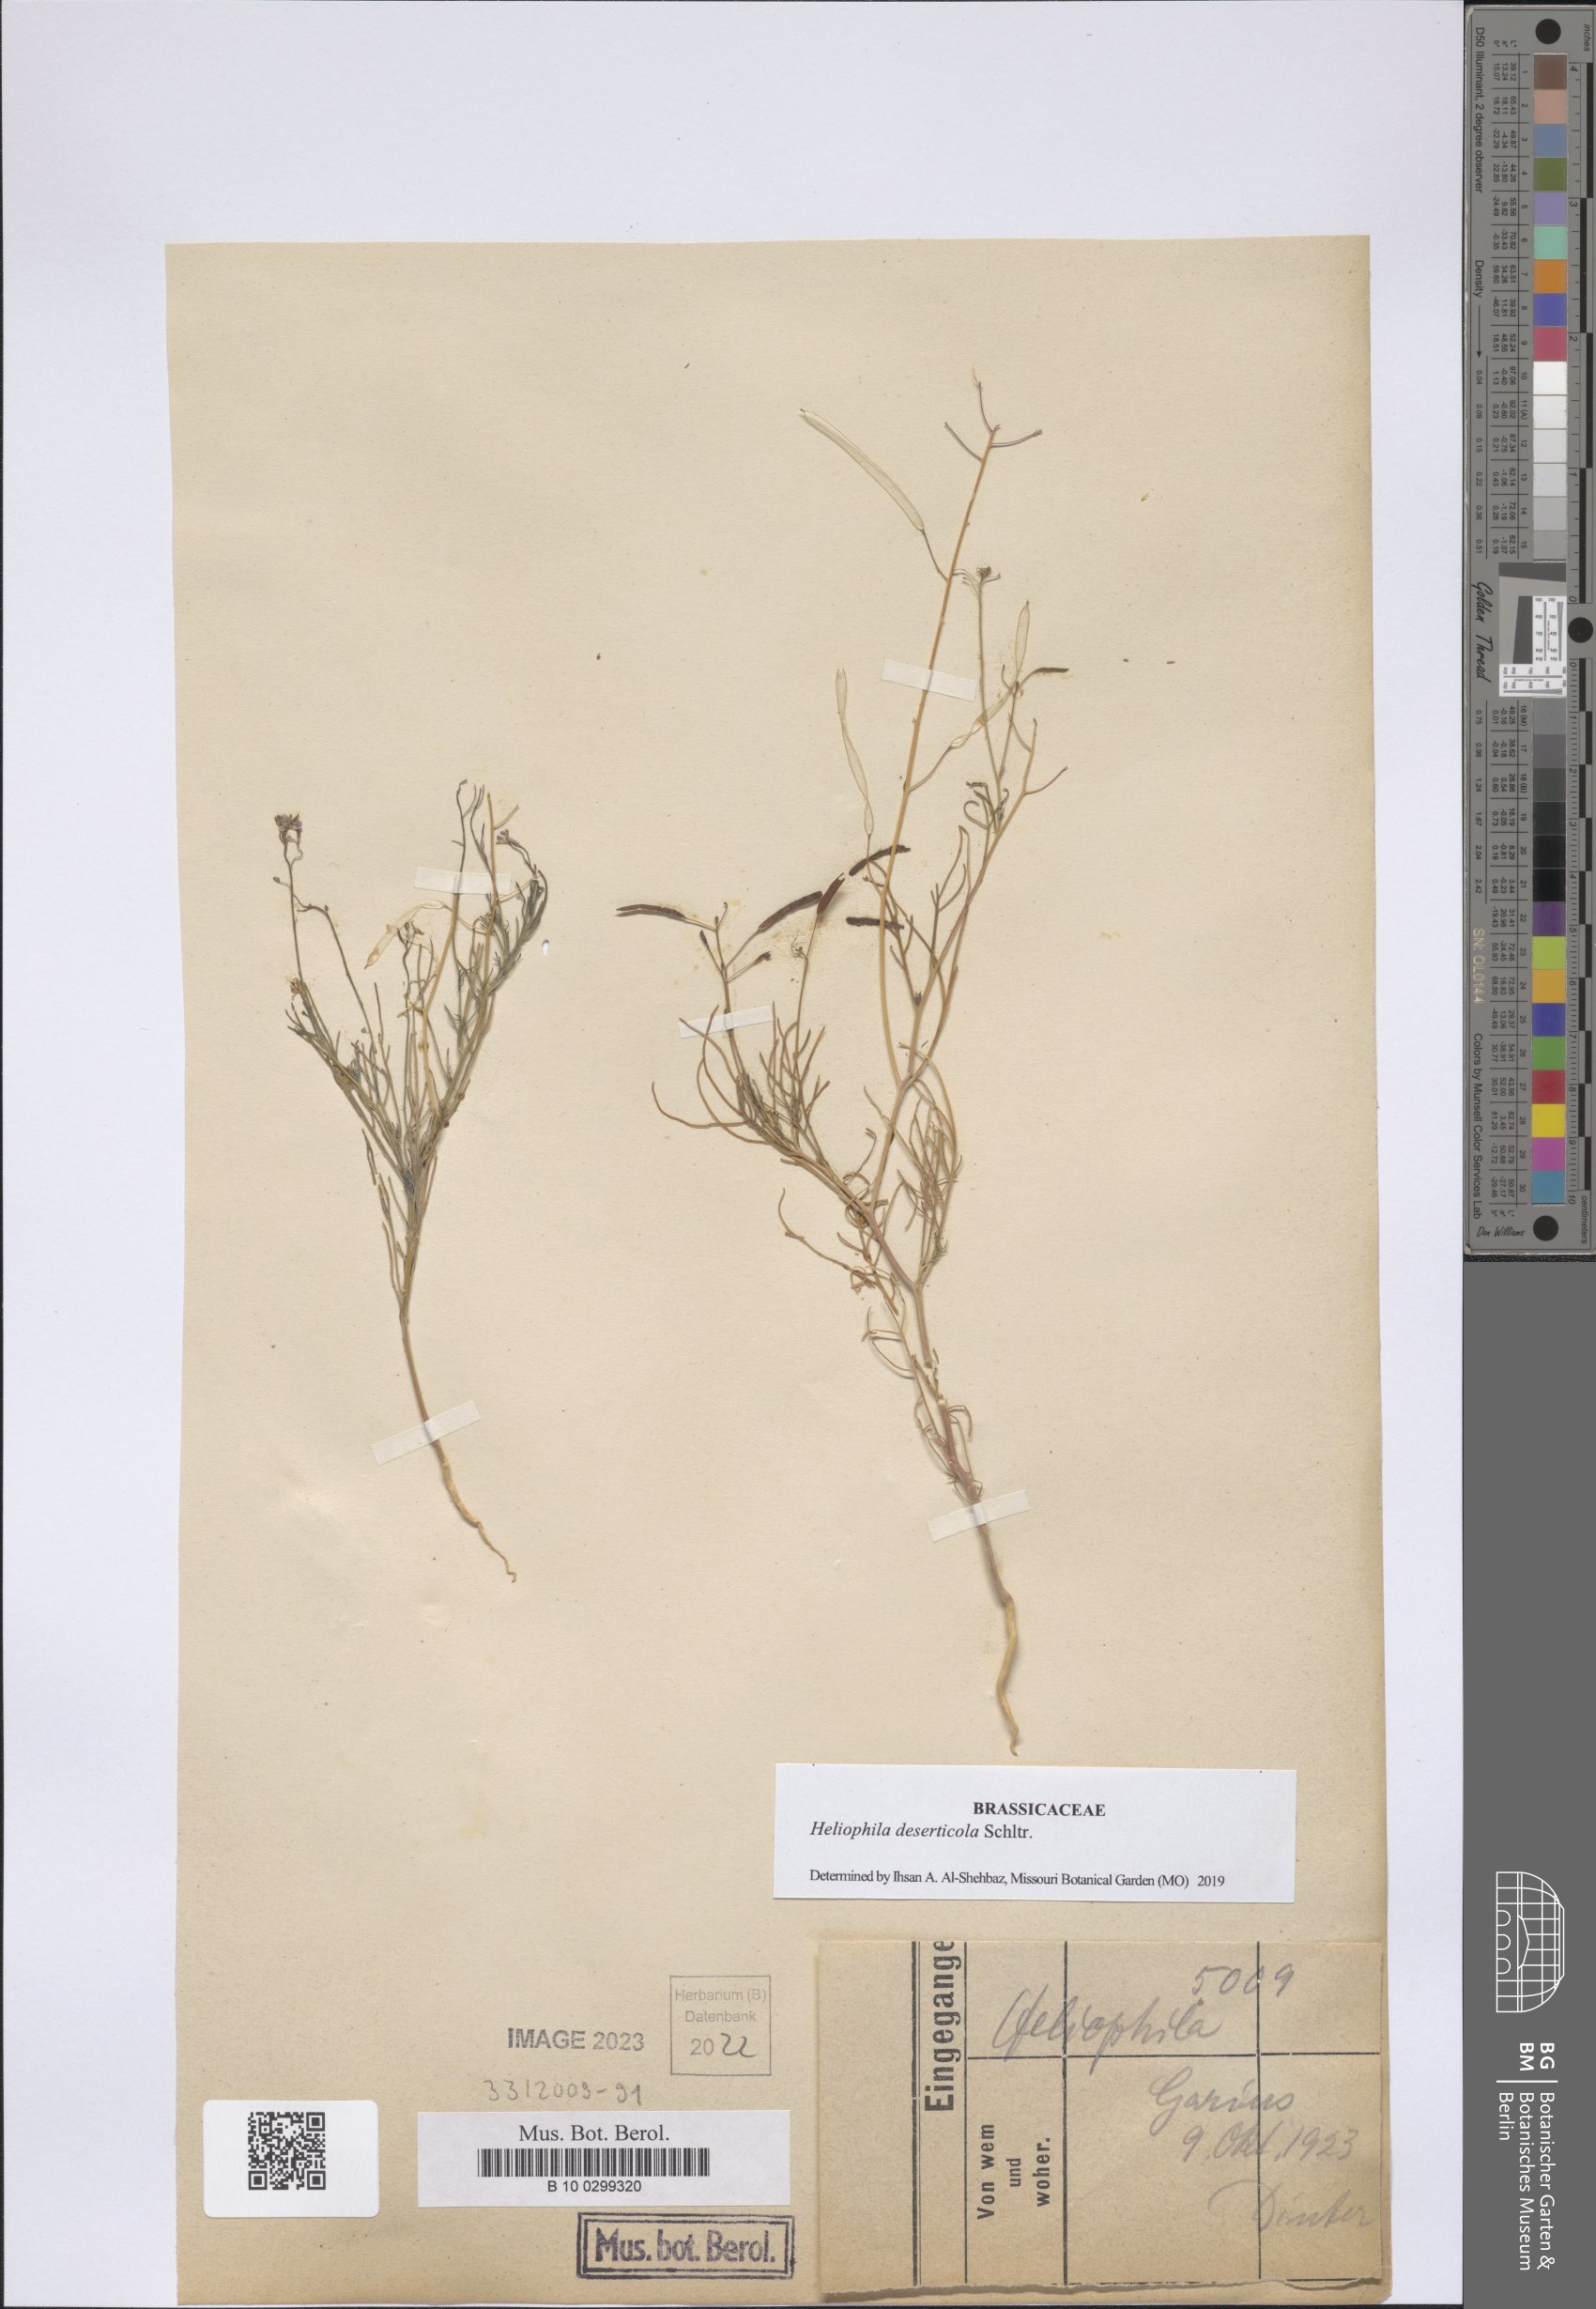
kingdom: Plantae
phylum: Tracheophyta
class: Magnoliopsida
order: Brassicales
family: Brassicaceae
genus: Heliophila
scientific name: Heliophila deserticola
